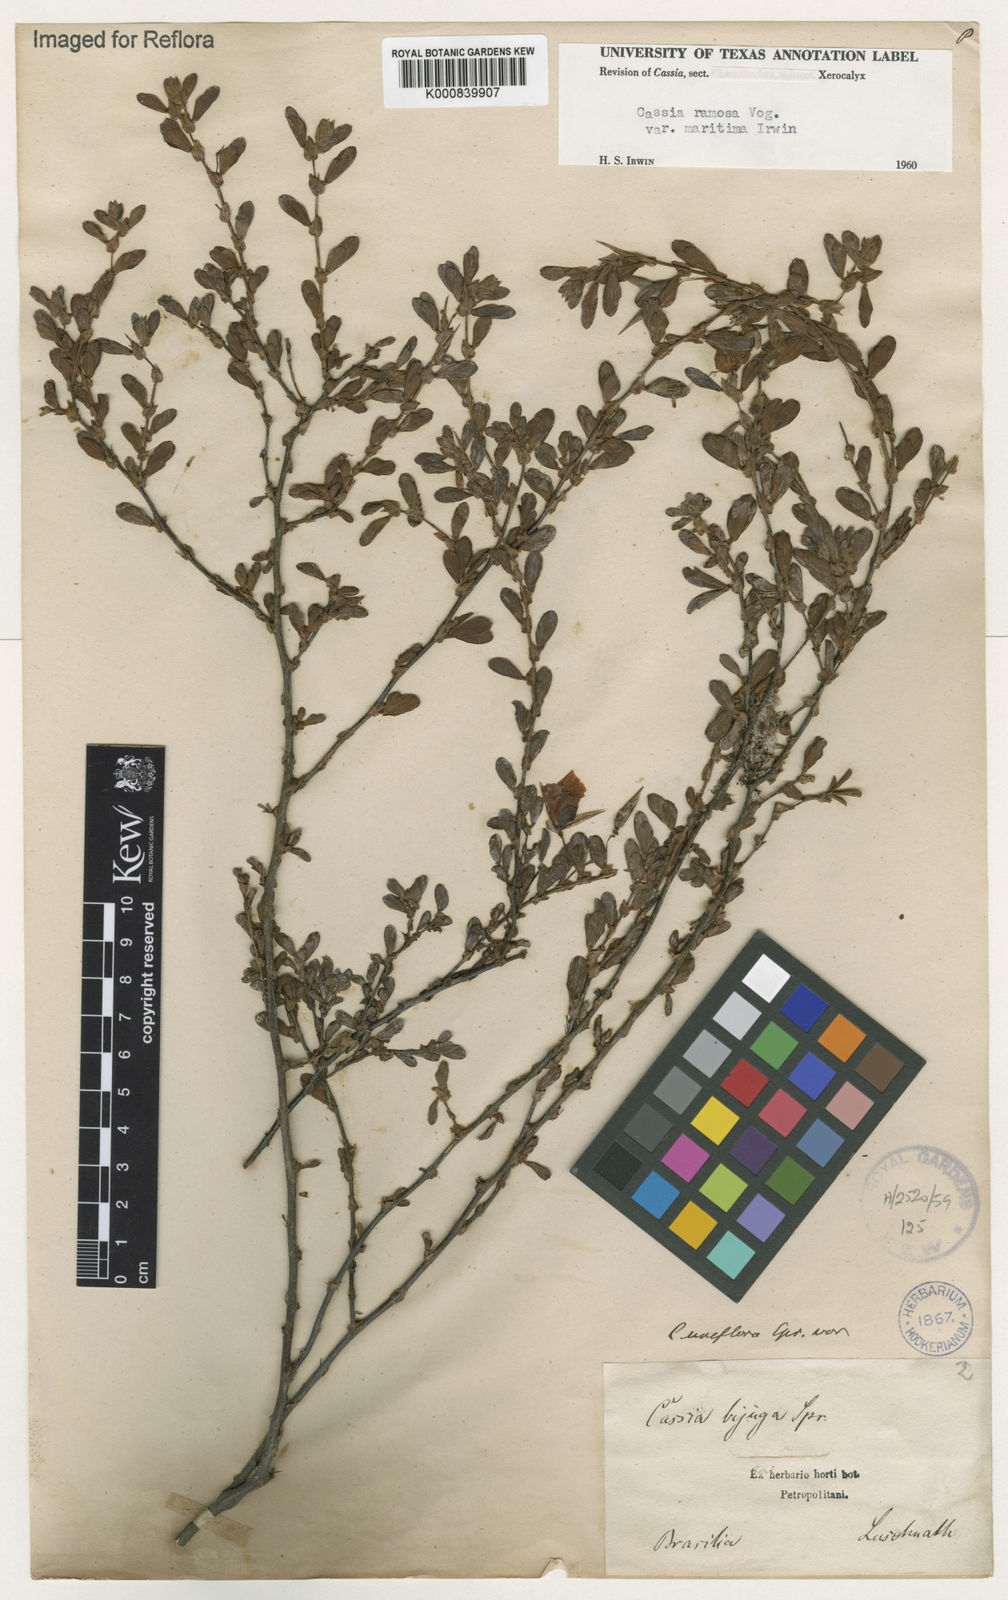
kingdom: Plantae
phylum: Tracheophyta
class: Magnoliopsida
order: Fabales
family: Fabaceae
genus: Chamaecrista
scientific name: Chamaecrista ramosa
